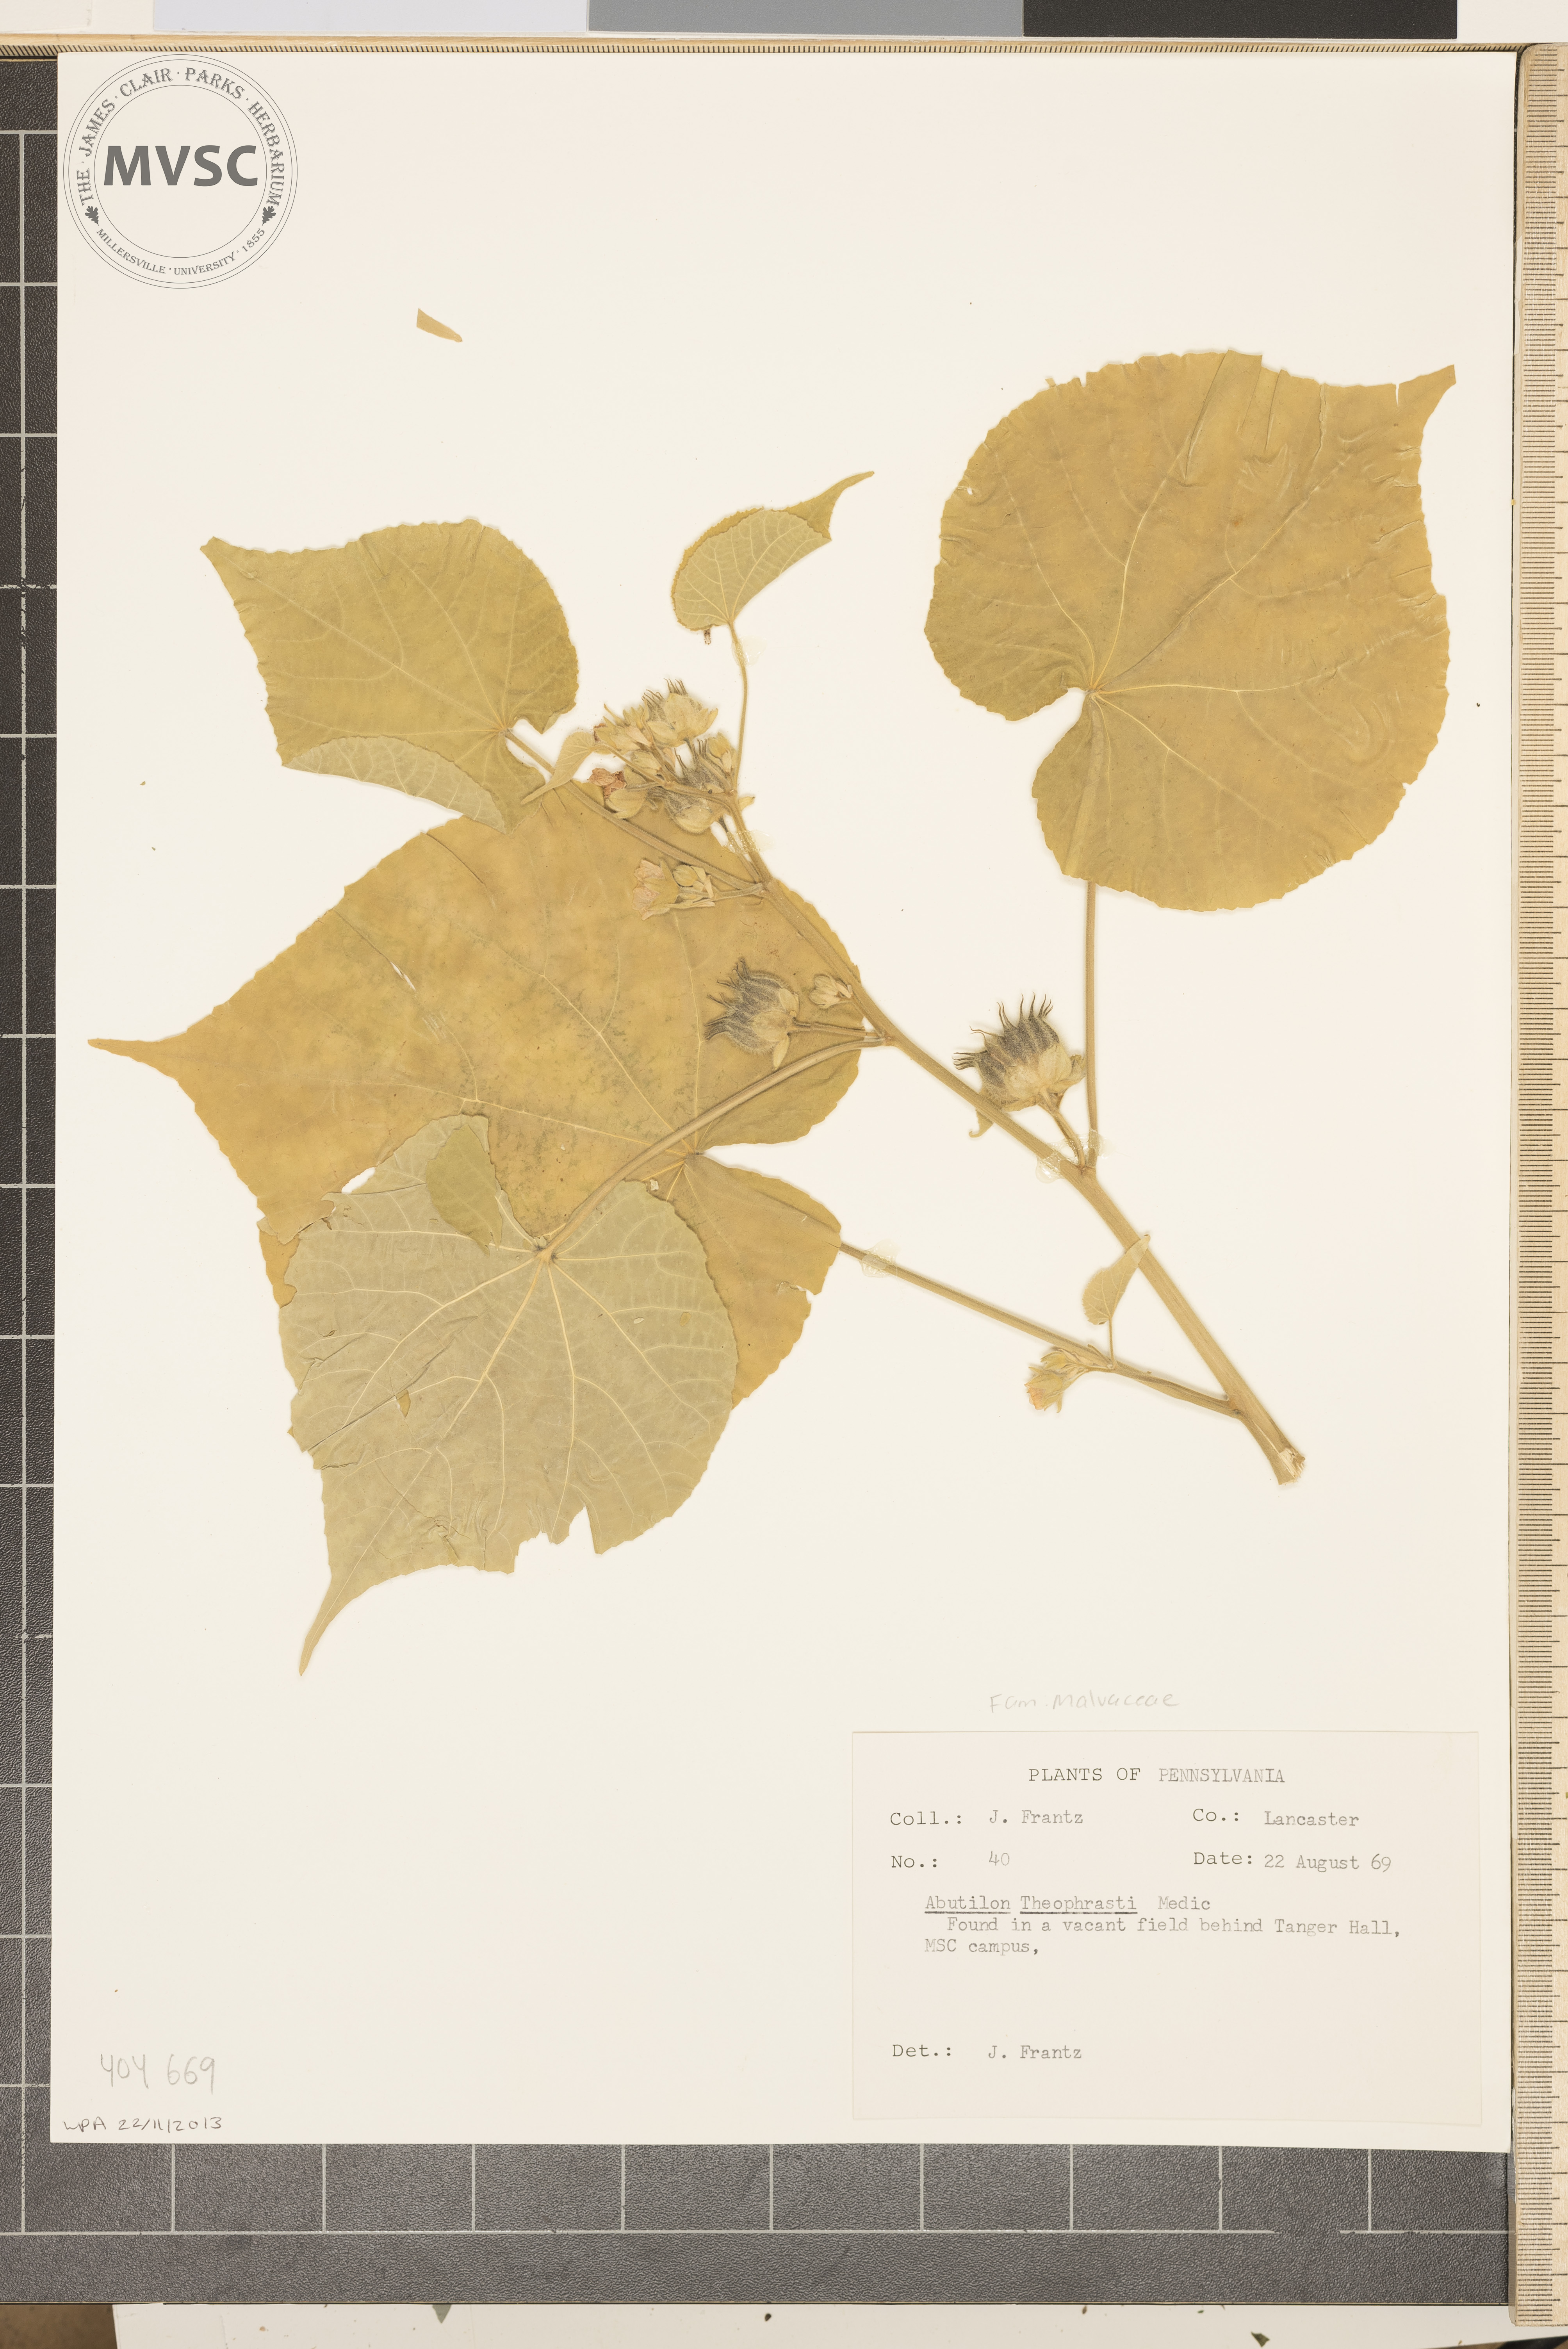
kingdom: Plantae
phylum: Tracheophyta
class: Magnoliopsida
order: Malvales
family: Malvaceae
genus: Abutilon
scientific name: Abutilon theophrasti
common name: Velvet leaf
